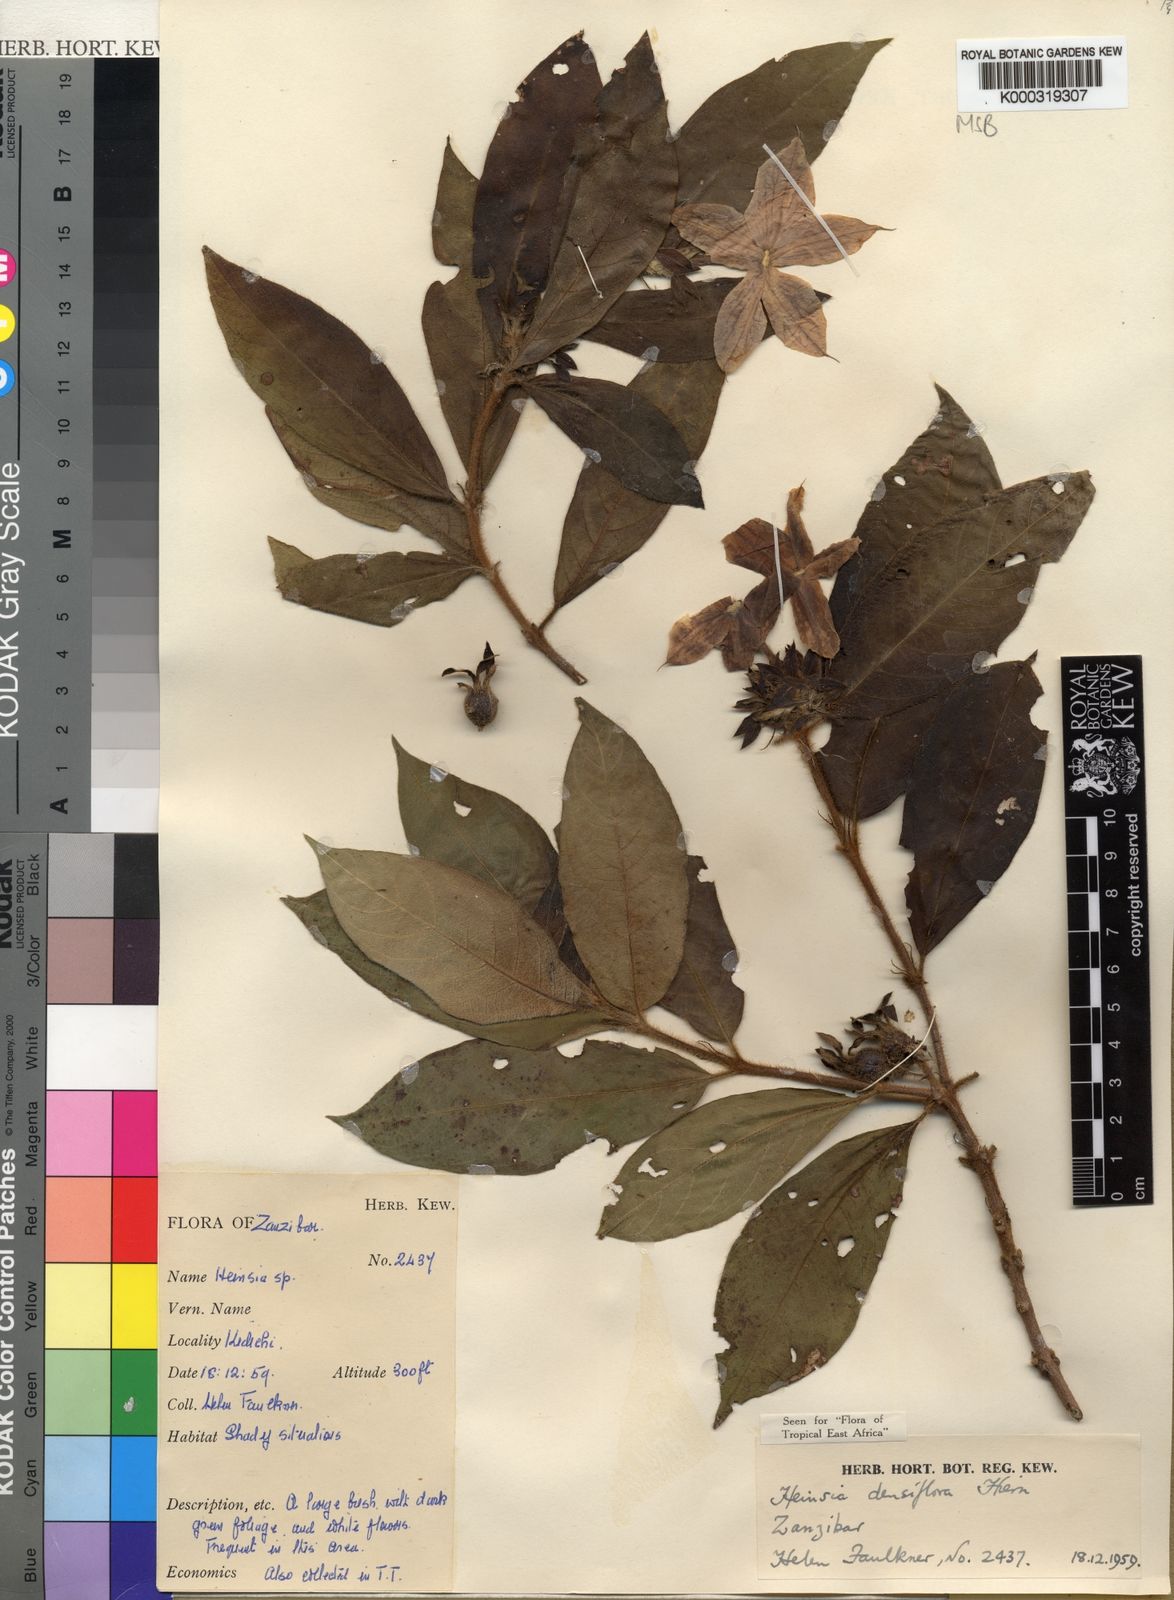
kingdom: Plantae
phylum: Tracheophyta
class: Magnoliopsida
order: Gentianales
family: Rubiaceae
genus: Heinsia
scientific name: Heinsia zanzibarica
